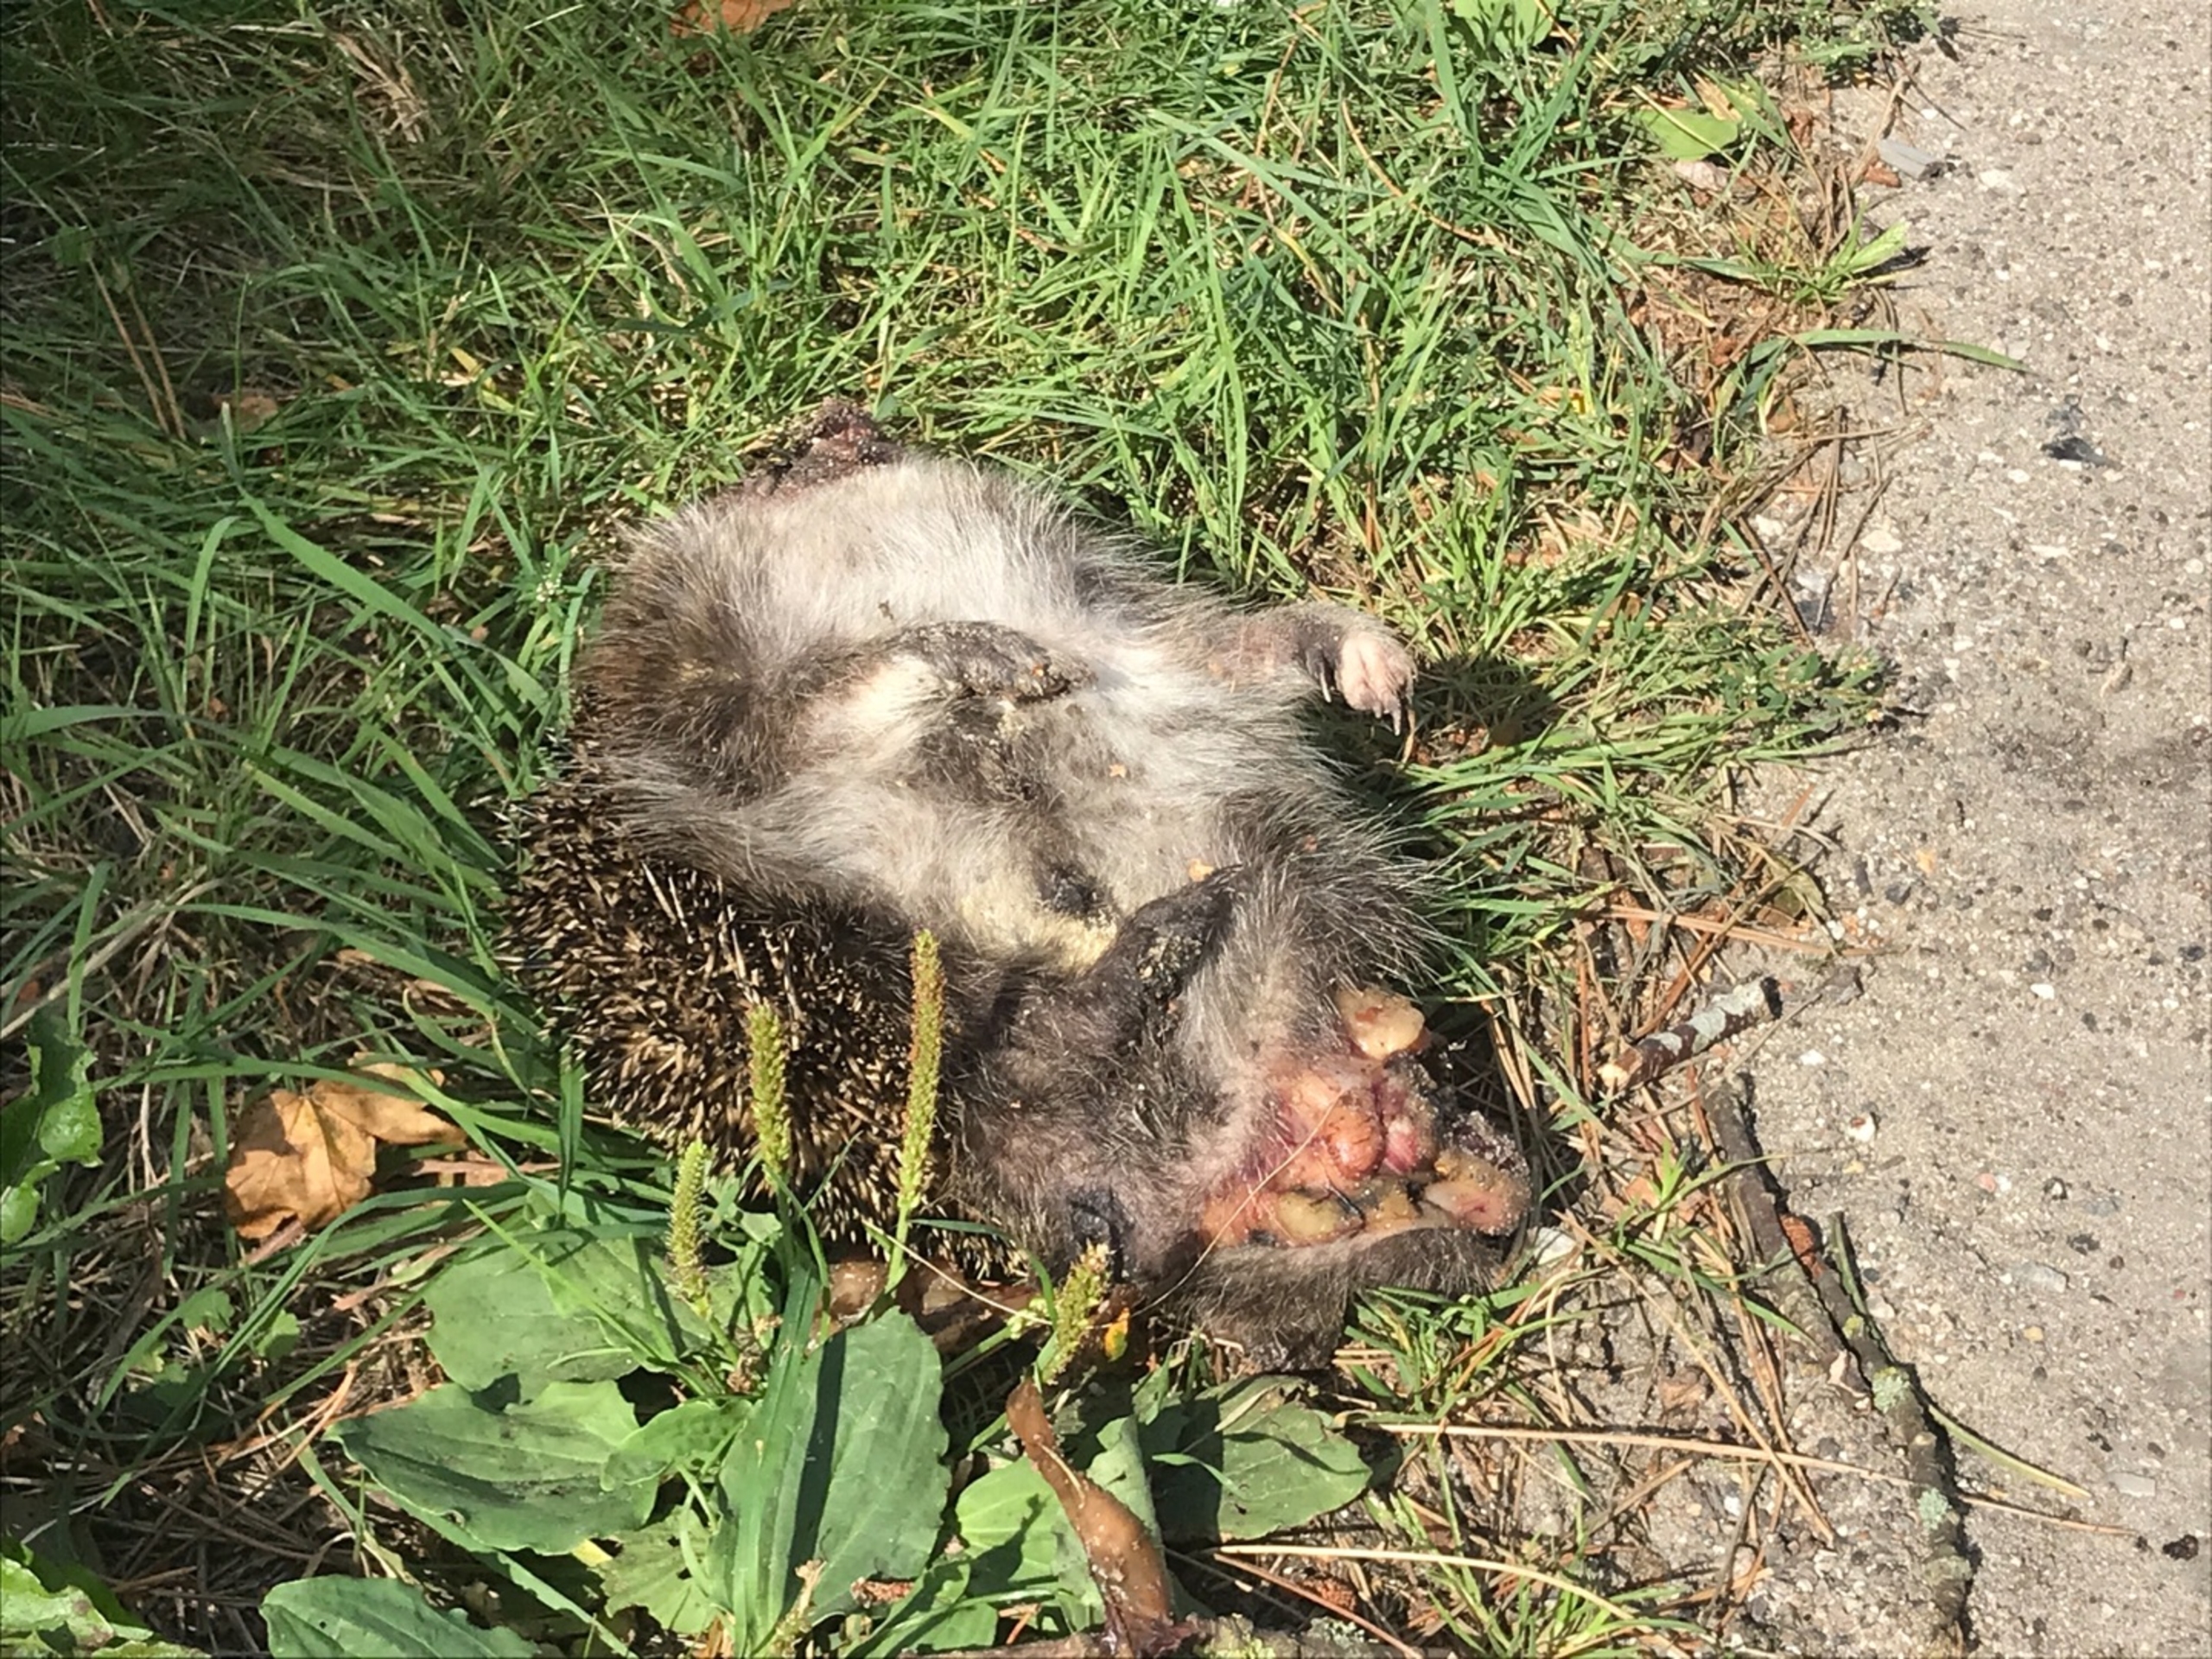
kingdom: Animalia
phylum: Chordata
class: Mammalia
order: Erinaceomorpha
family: Erinaceidae
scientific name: Erinaceidae
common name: Pindsvin
